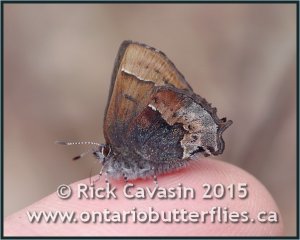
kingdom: Animalia
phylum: Arthropoda
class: Insecta
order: Lepidoptera
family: Lycaenidae
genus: Incisalia
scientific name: Incisalia henrici
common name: Henry's Elfin
